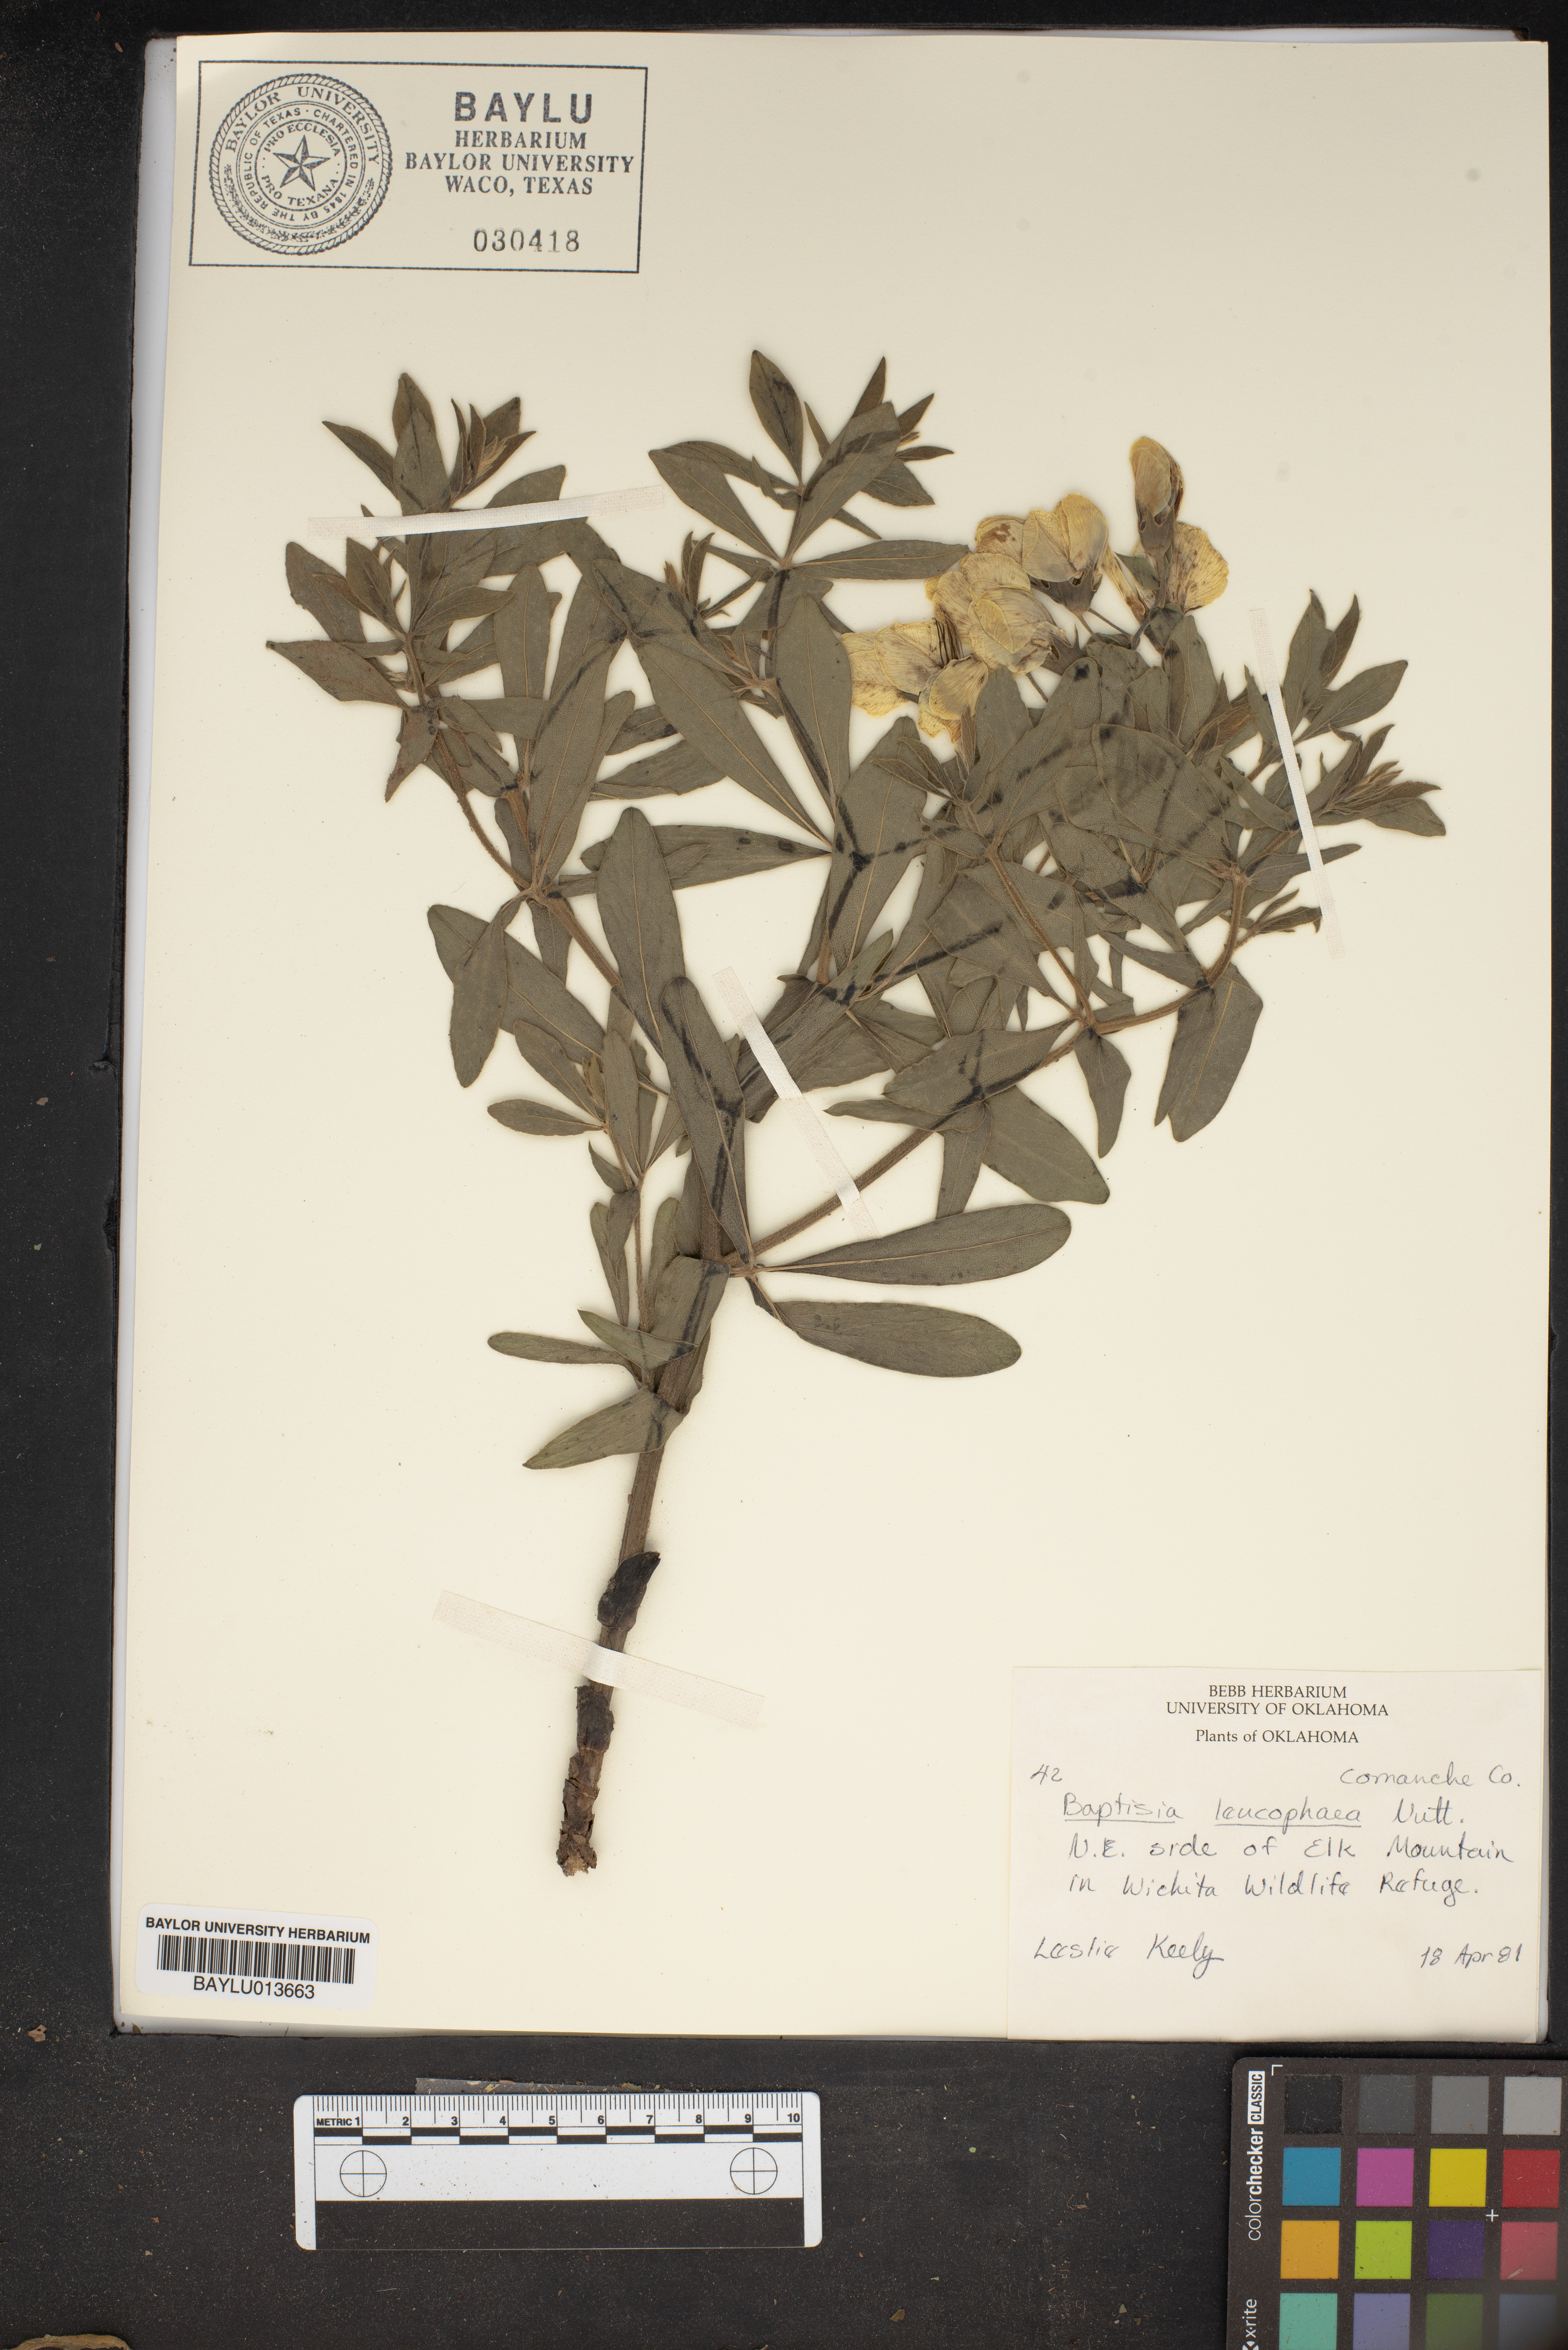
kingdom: Plantae
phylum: Tracheophyta
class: Magnoliopsida
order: Fabales
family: Fabaceae
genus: Baptisia
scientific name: Baptisia bracteata
